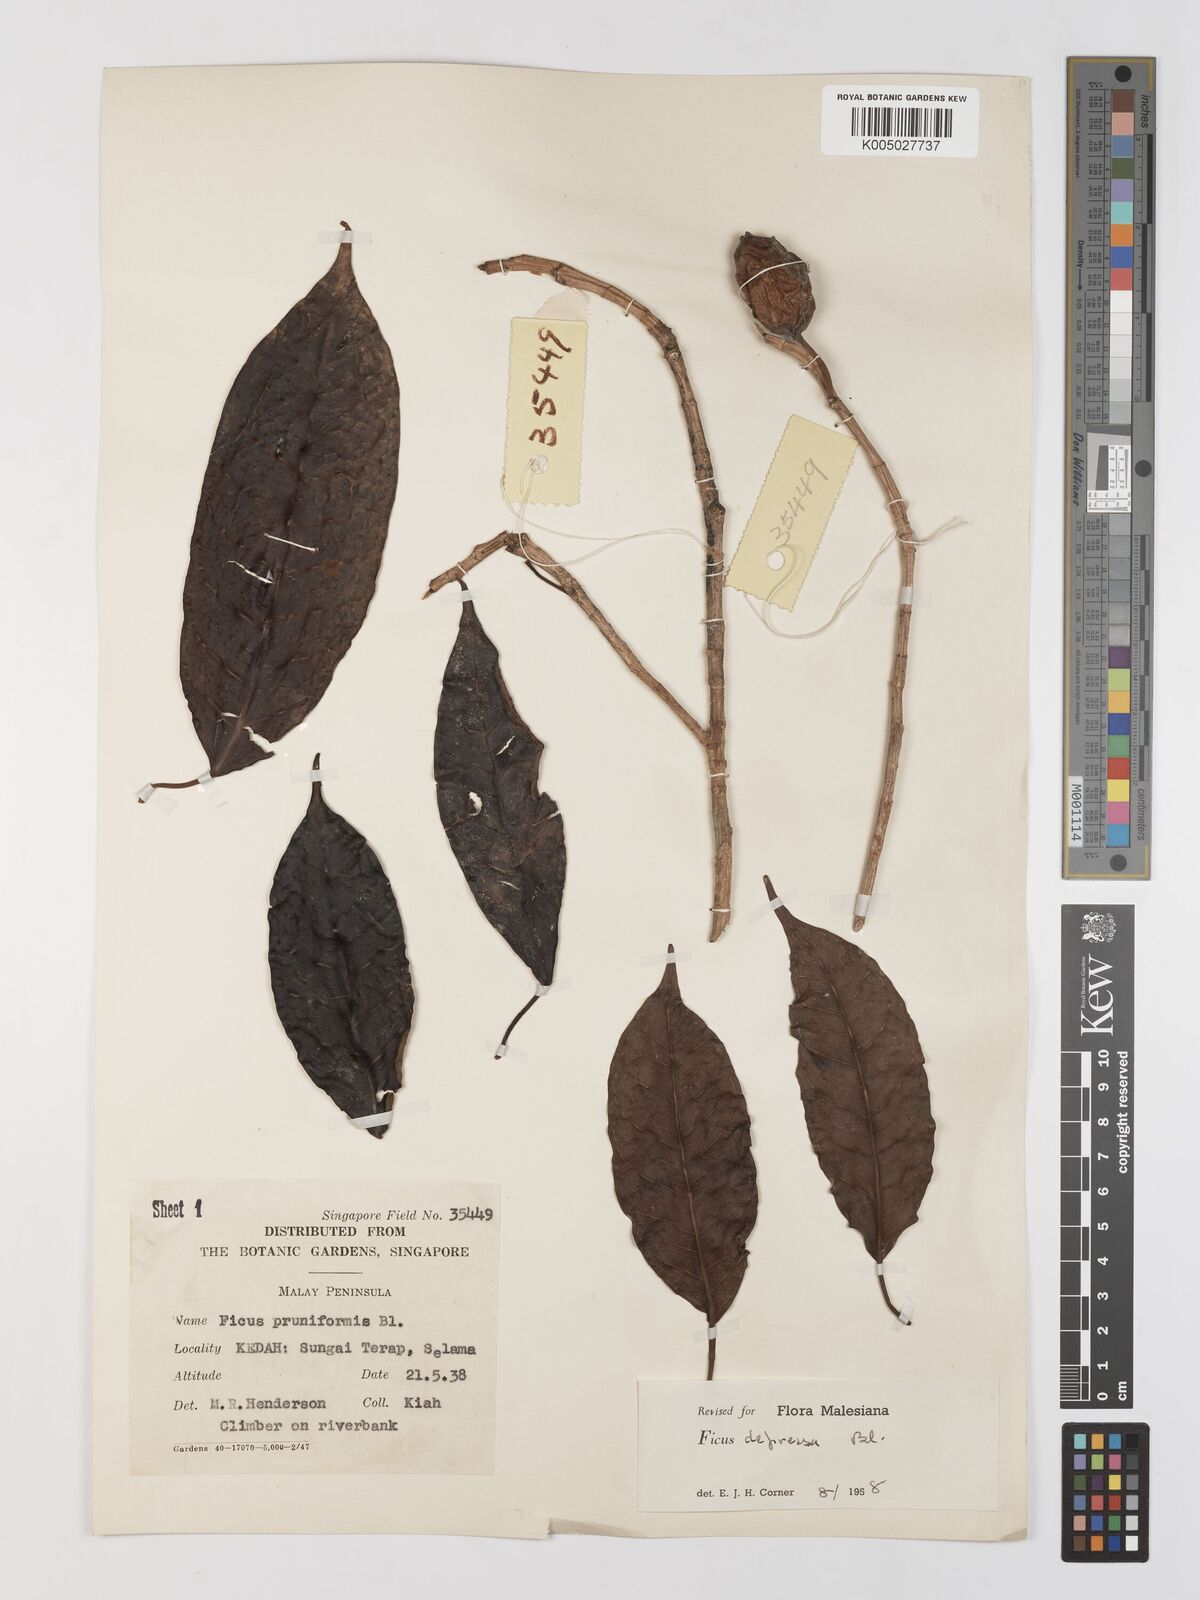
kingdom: Plantae
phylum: Tracheophyta
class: Magnoliopsida
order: Rosales
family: Moraceae
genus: Ficus
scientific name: Ficus
